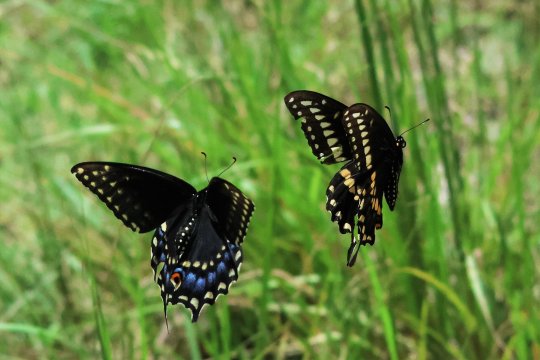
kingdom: Animalia
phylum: Arthropoda
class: Insecta
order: Lepidoptera
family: Papilionidae
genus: Papilio
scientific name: Papilio polyxenes
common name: Black Swallowtail
